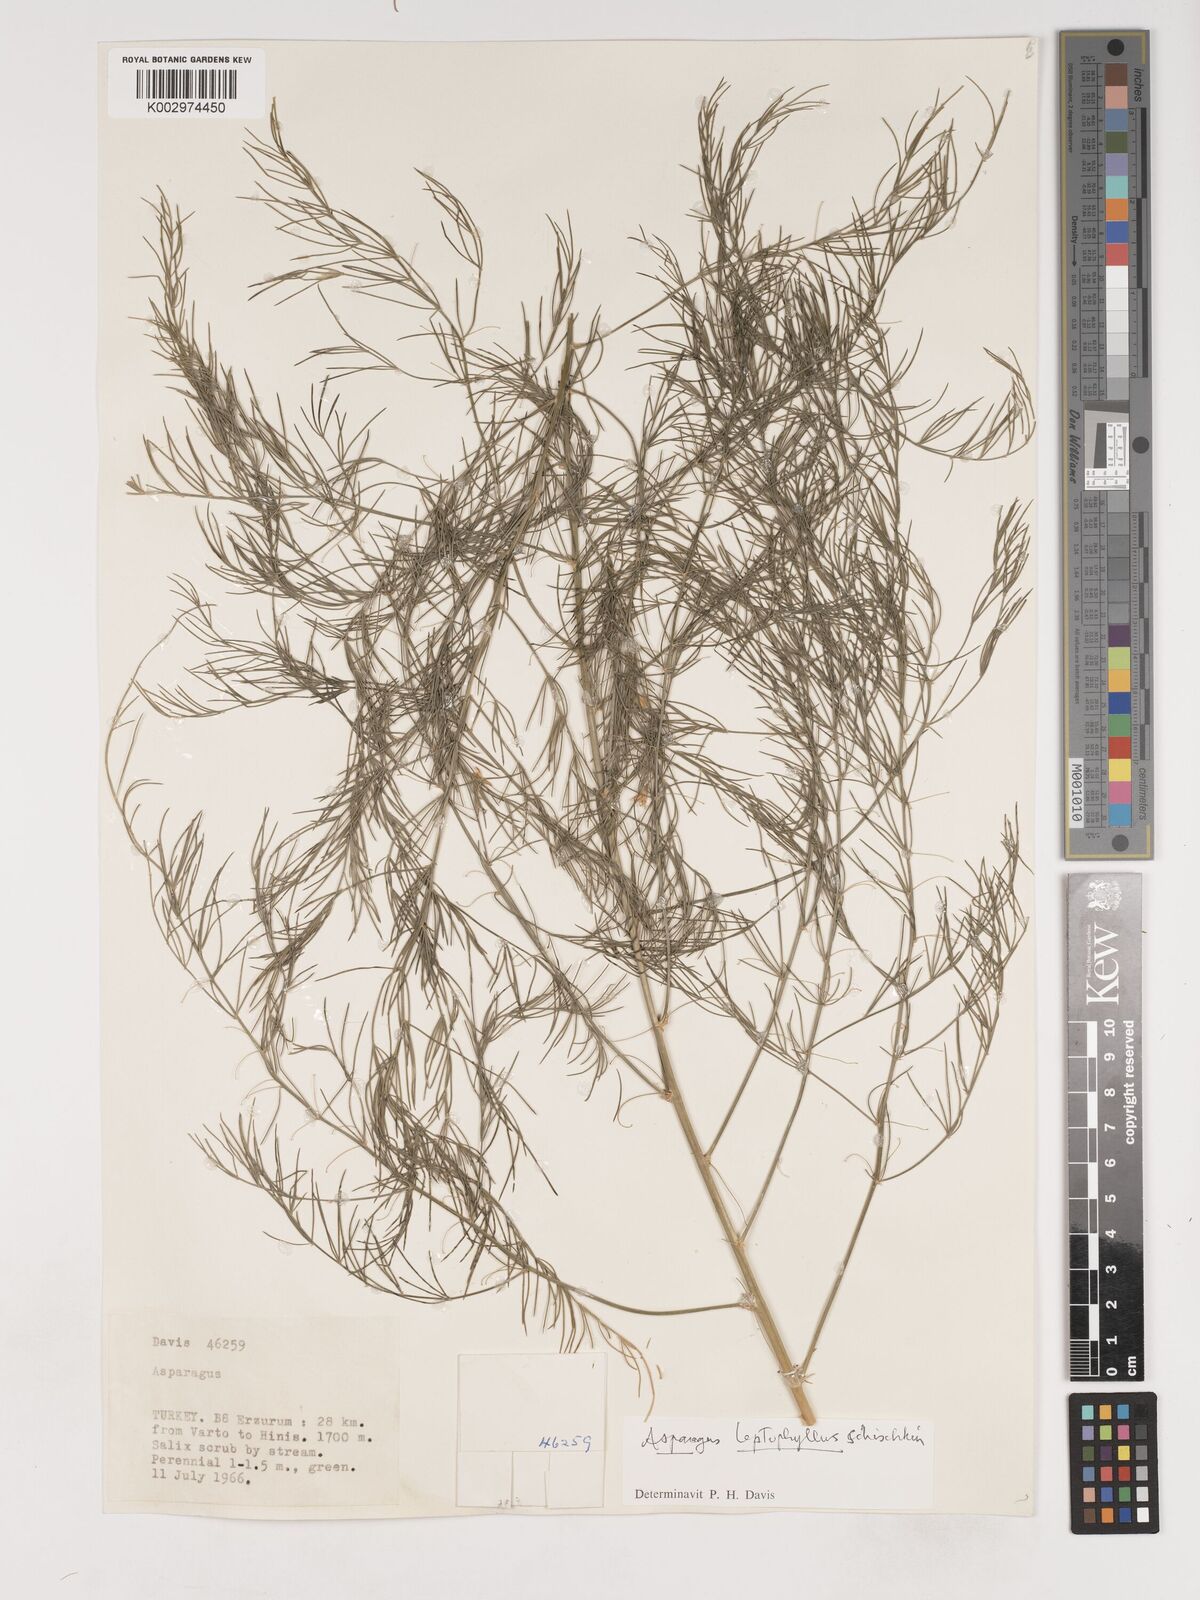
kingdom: Plantae
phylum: Tracheophyta
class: Liliopsida
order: Asparagales
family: Asparagaceae
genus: Asparagus
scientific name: Asparagus persicus
